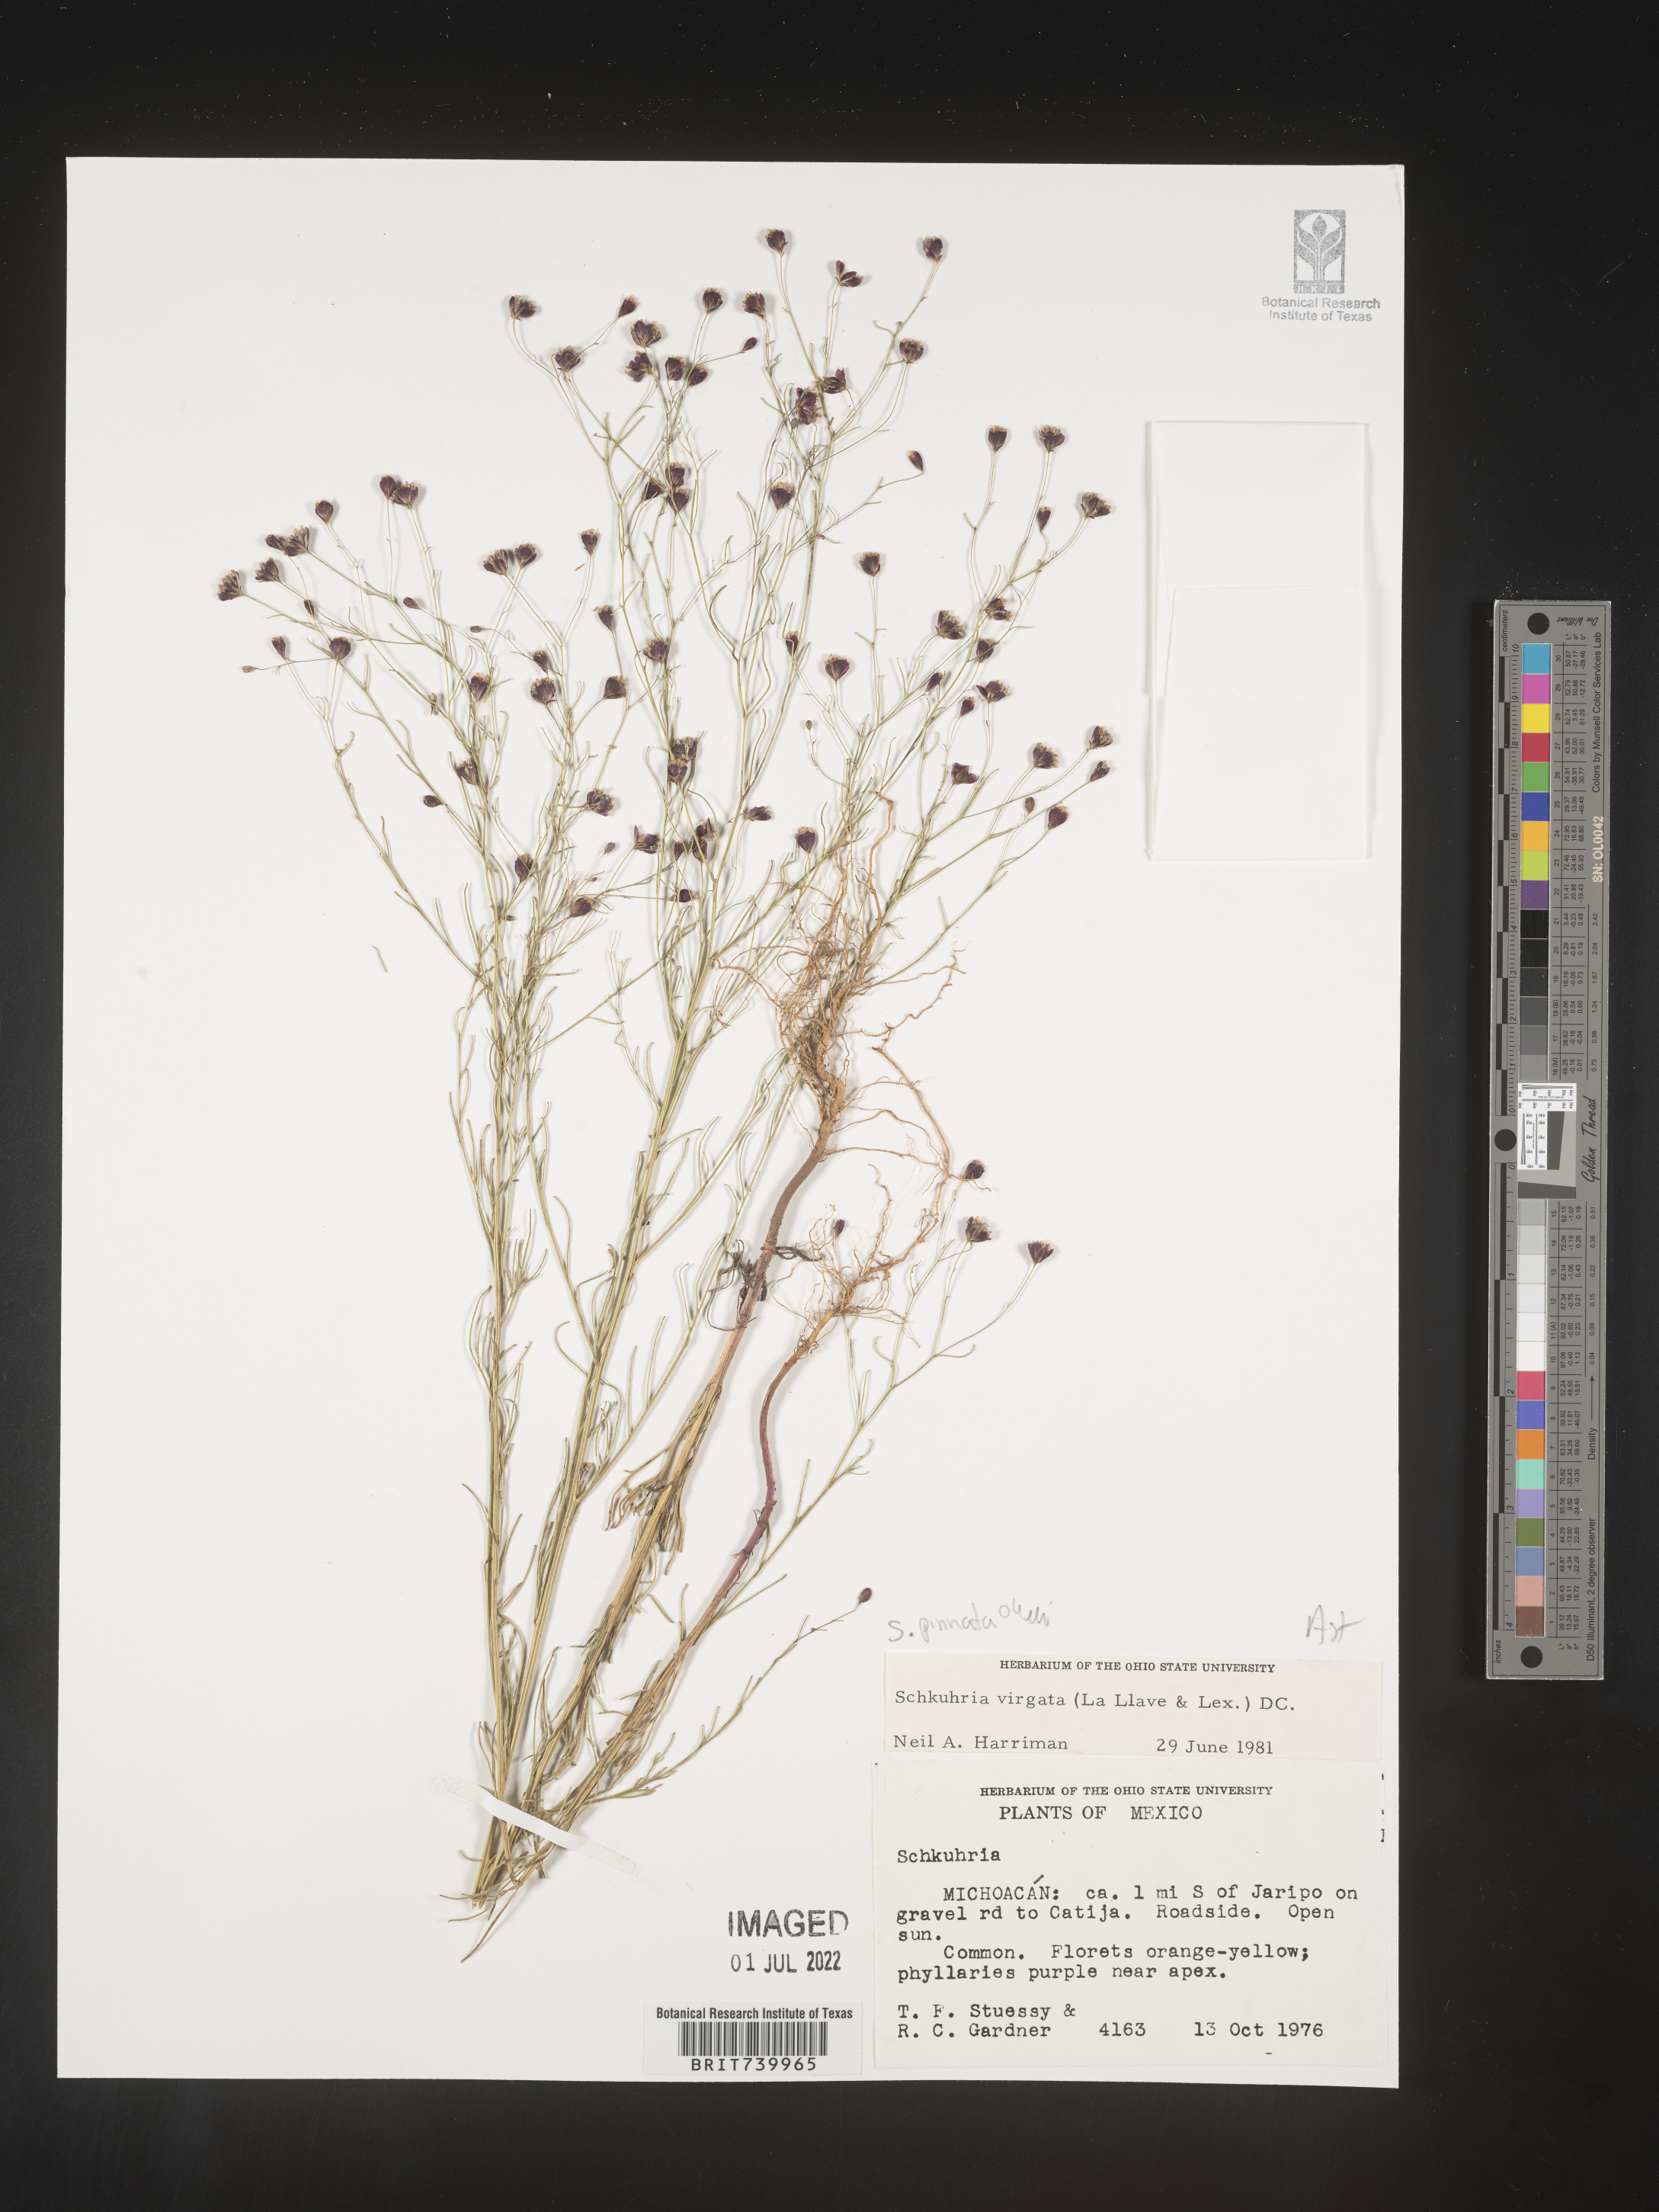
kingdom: Plantae
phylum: Tracheophyta
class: Magnoliopsida
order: Asterales
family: Asteraceae
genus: Schkuhria
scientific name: Schkuhria
